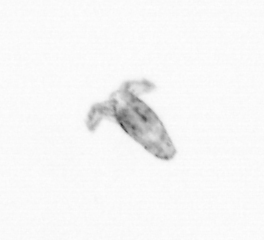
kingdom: Animalia
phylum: Arthropoda
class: Copepoda
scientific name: Copepoda
